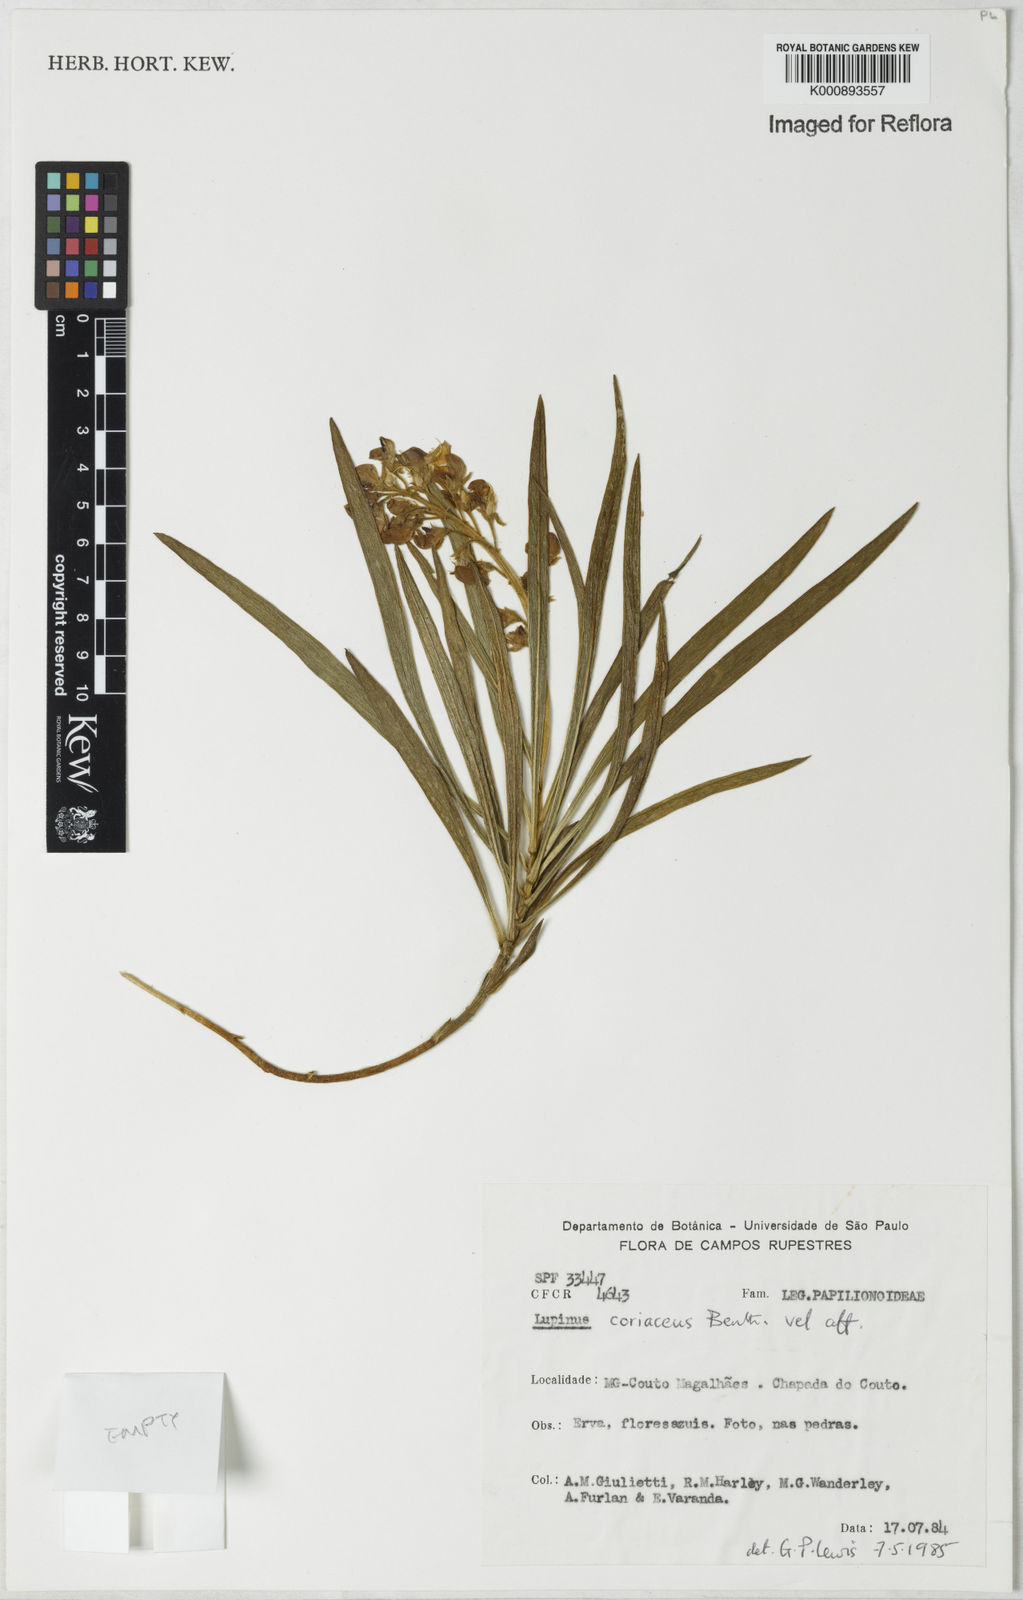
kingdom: Plantae
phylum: Tracheophyta
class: Magnoliopsida
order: Fabales
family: Fabaceae
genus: Lupinus
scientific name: Lupinus coriaceus
